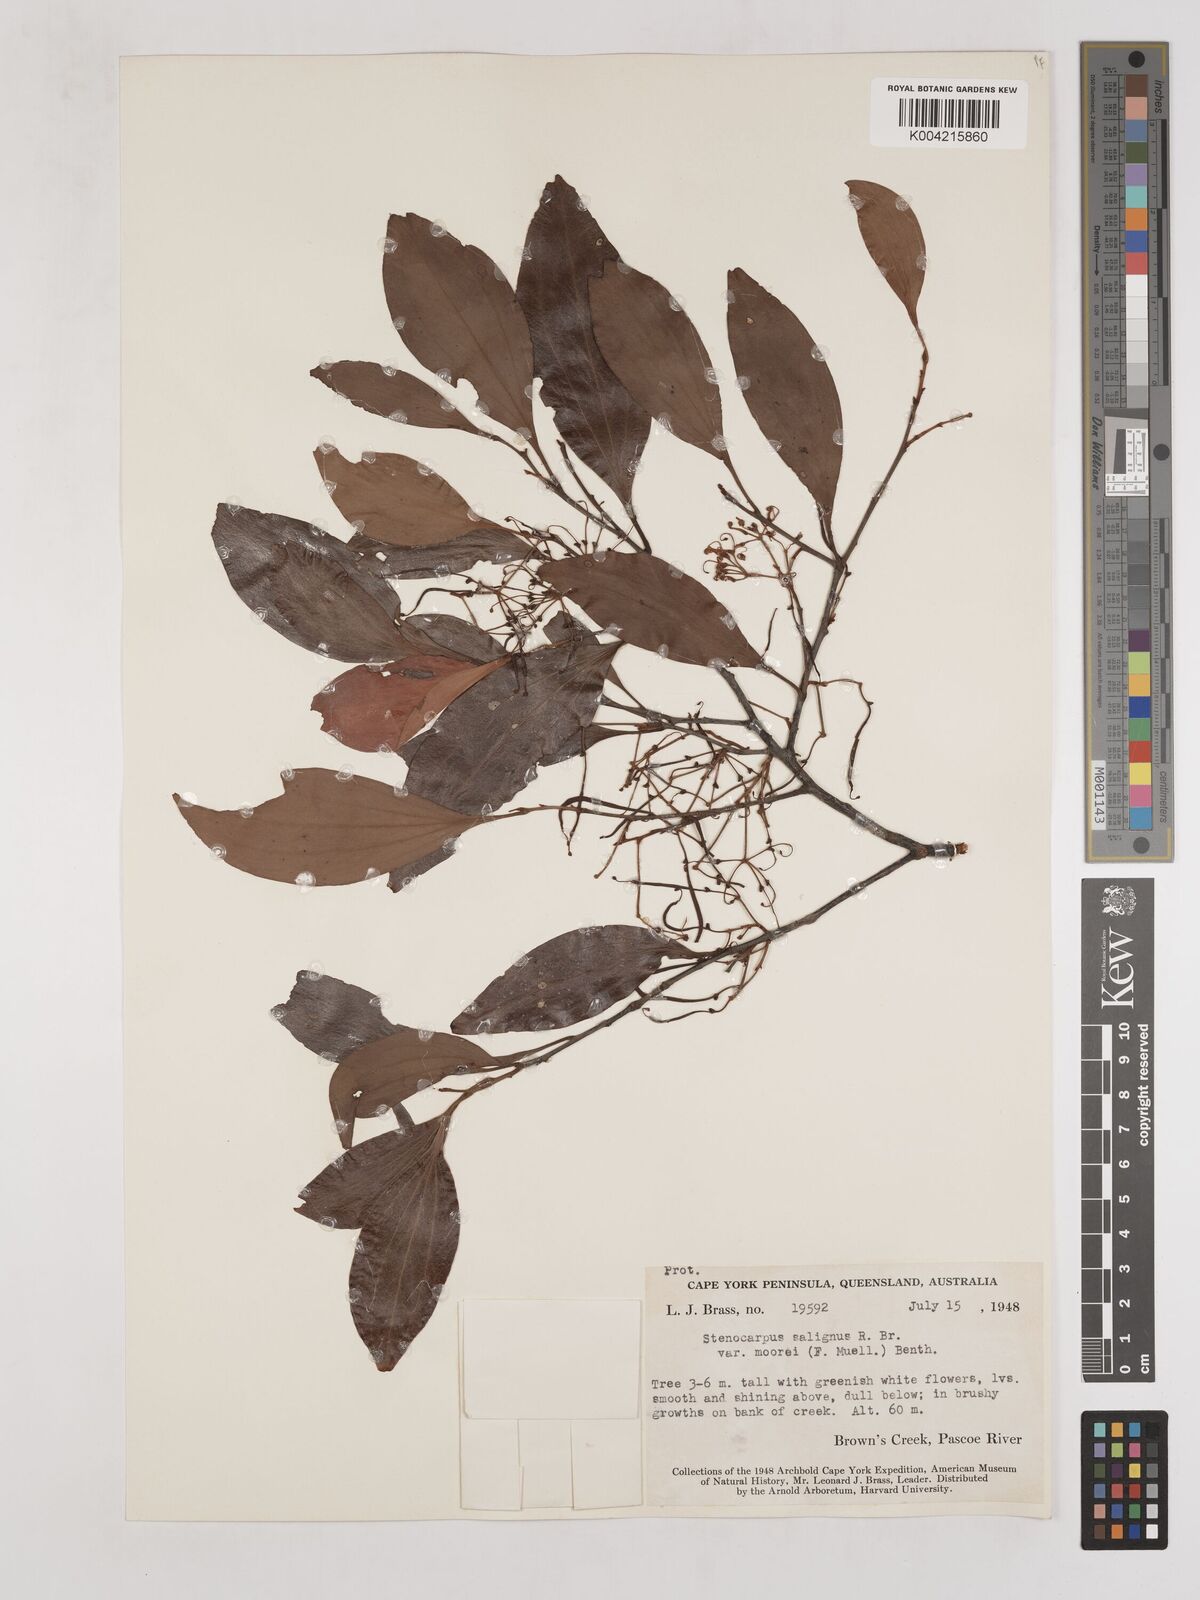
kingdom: Plantae
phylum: Tracheophyta
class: Magnoliopsida
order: Proteales
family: Proteaceae
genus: Stenocarpus
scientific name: Stenocarpus salignus
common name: Red silky-oak
